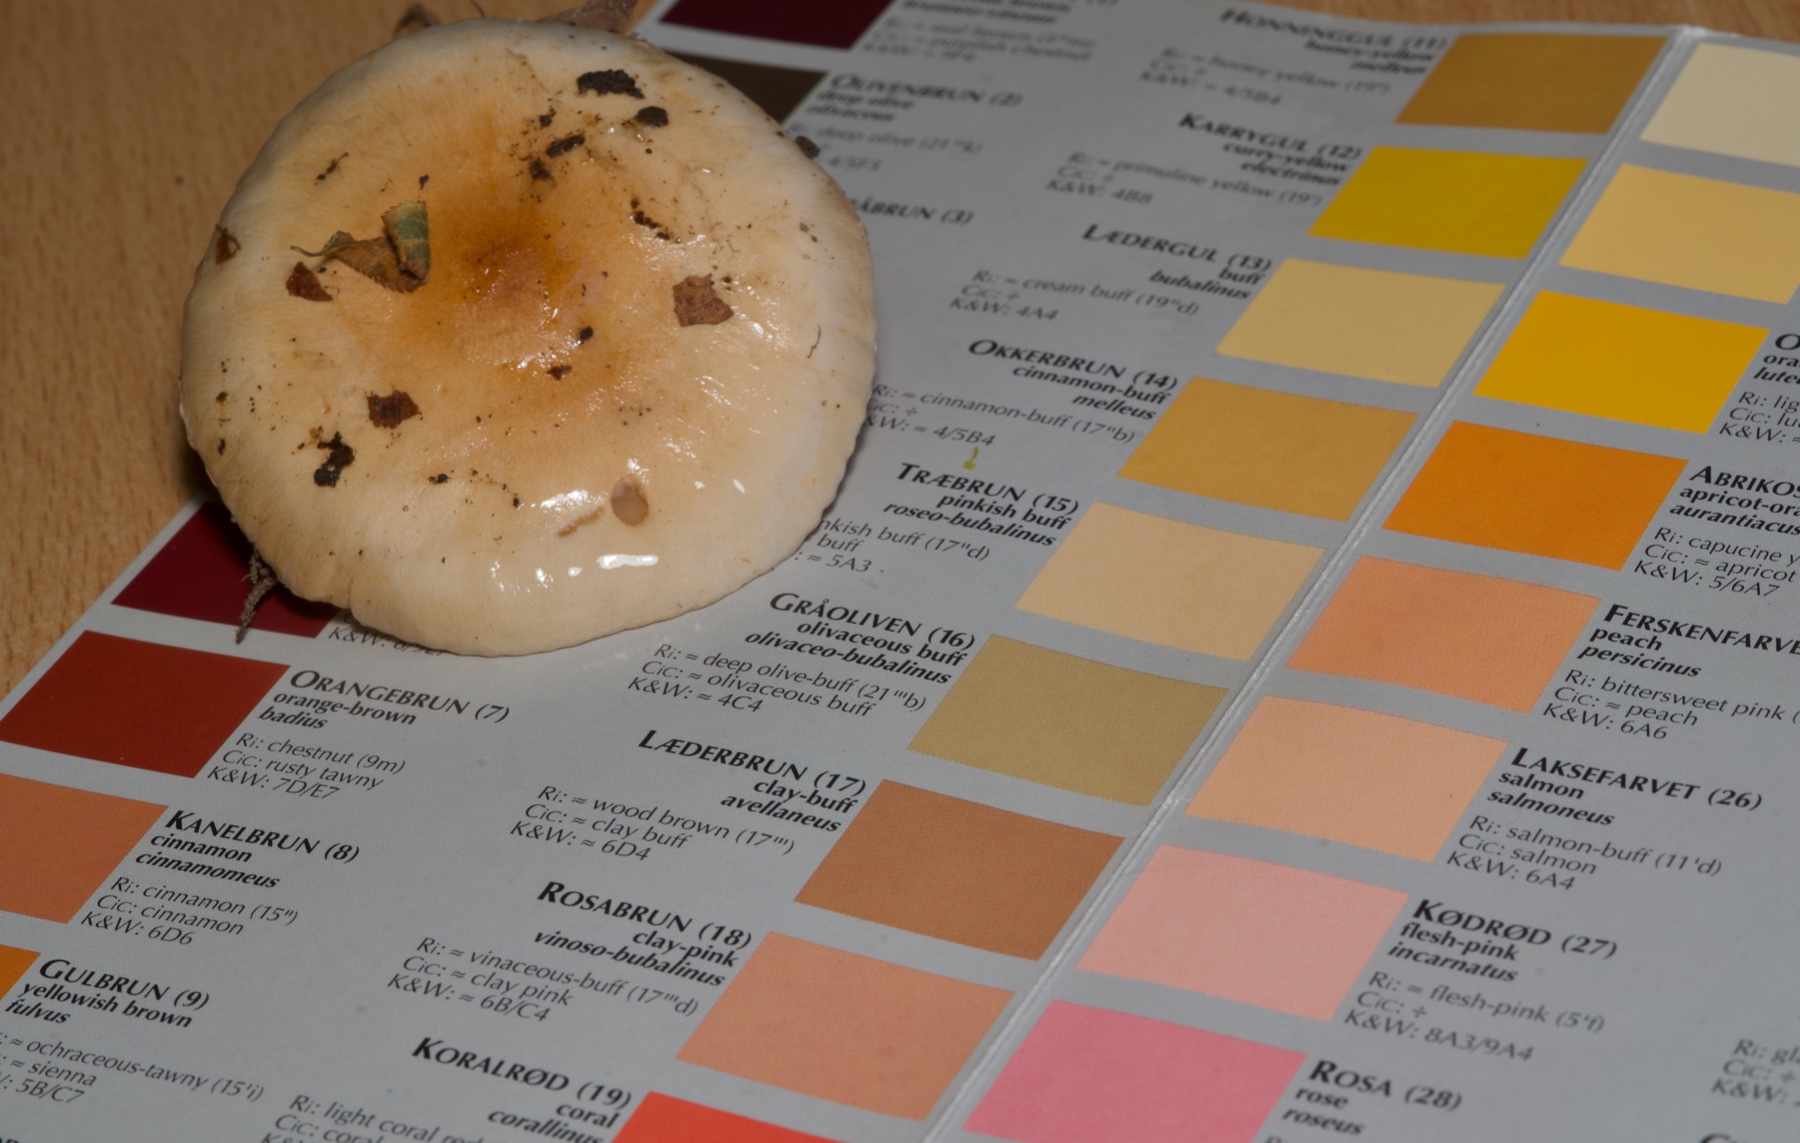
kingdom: Fungi
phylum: Basidiomycota
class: Agaricomycetes
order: Agaricales
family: Hygrophoraceae
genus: Hygrophorus
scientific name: Hygrophorus
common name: sneglehat
